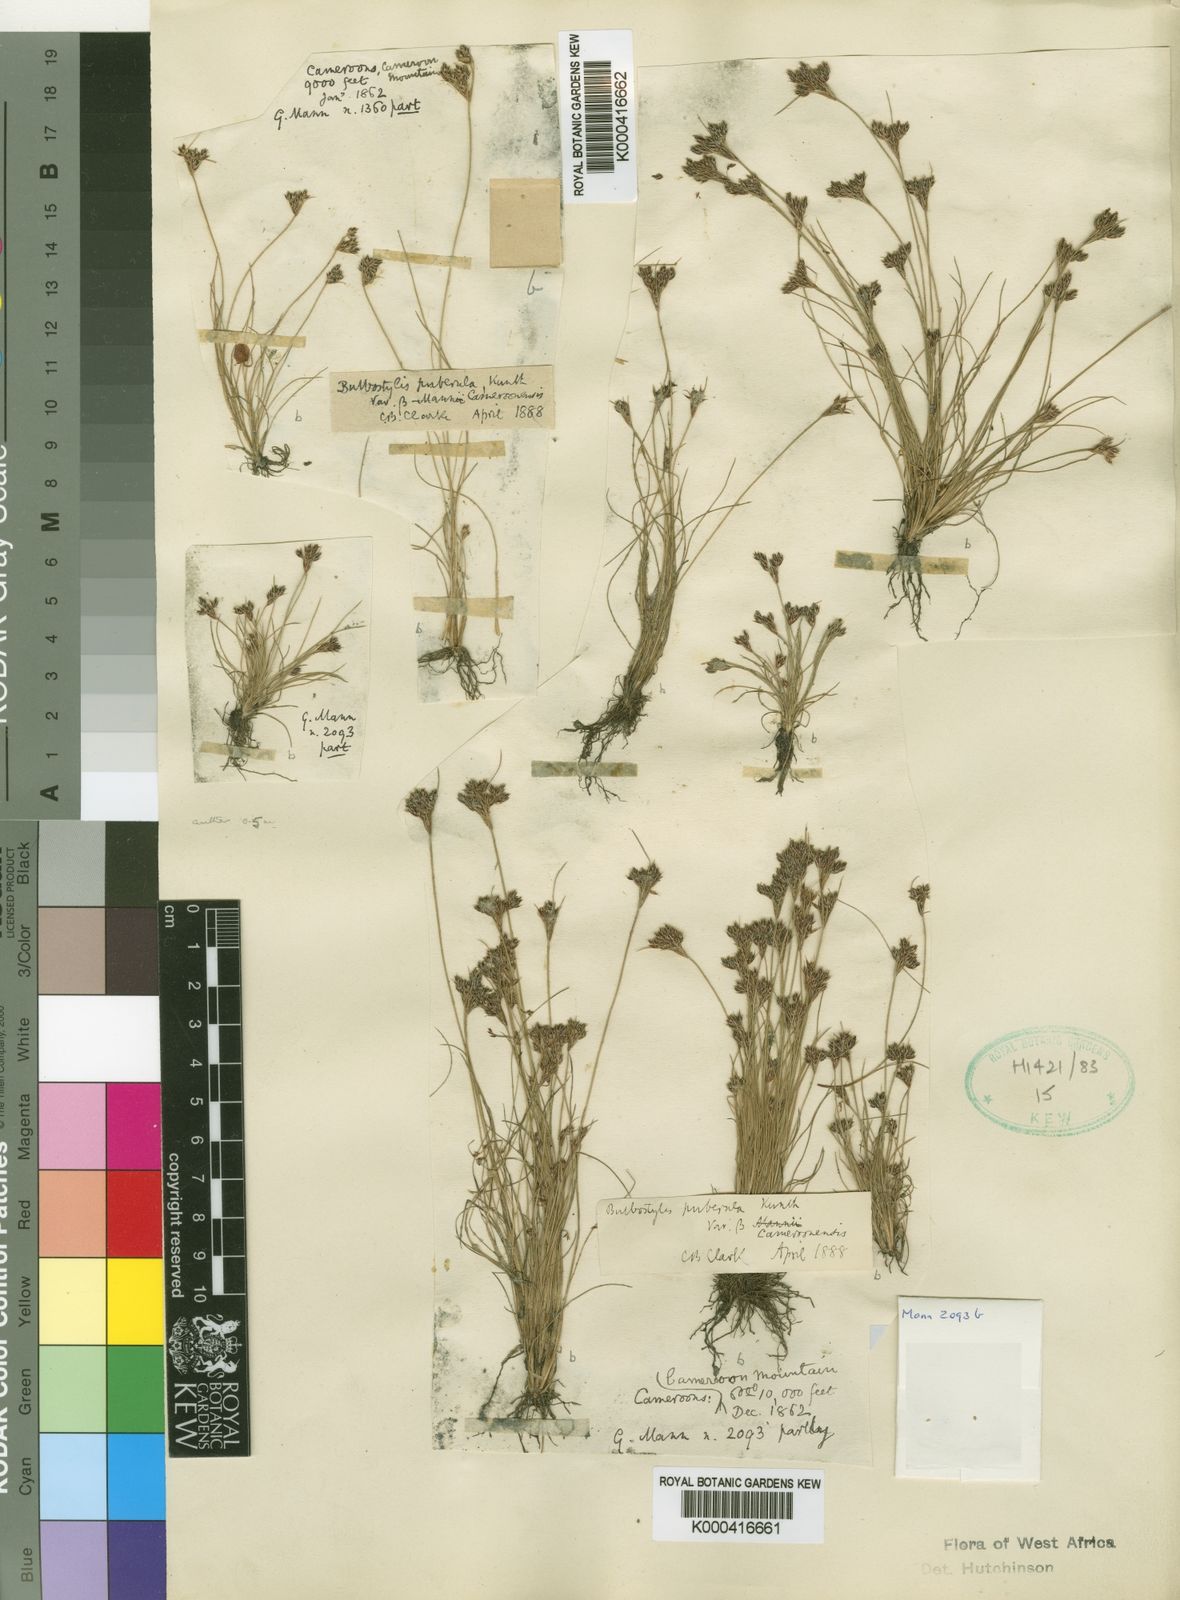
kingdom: Plantae
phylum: Tracheophyta
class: Liliopsida
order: Poales
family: Cyperaceae
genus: Fimbristylis
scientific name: Fimbristylis densa
